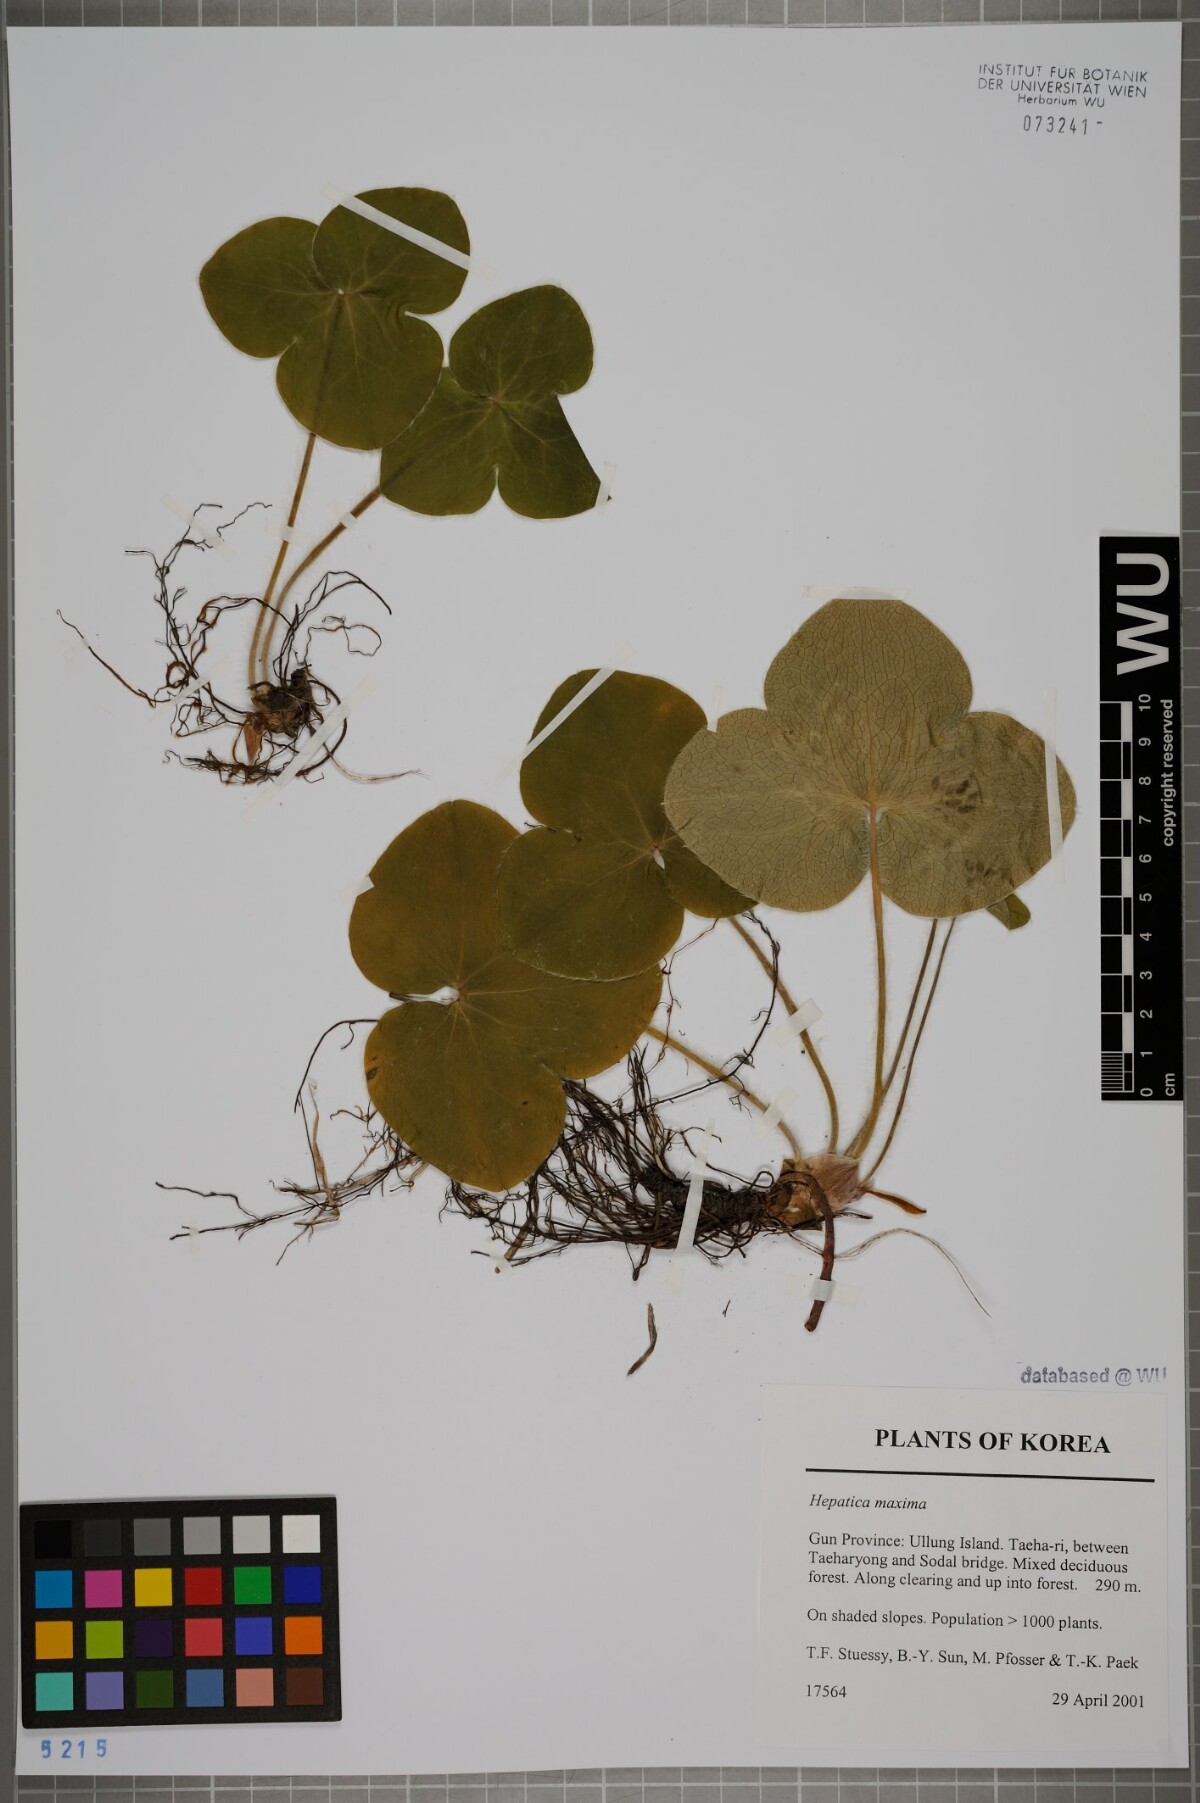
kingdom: Plantae
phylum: Tracheophyta
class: Magnoliopsida
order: Ranunculales
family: Ranunculaceae
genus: Hepatica
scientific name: Hepatica maxima
